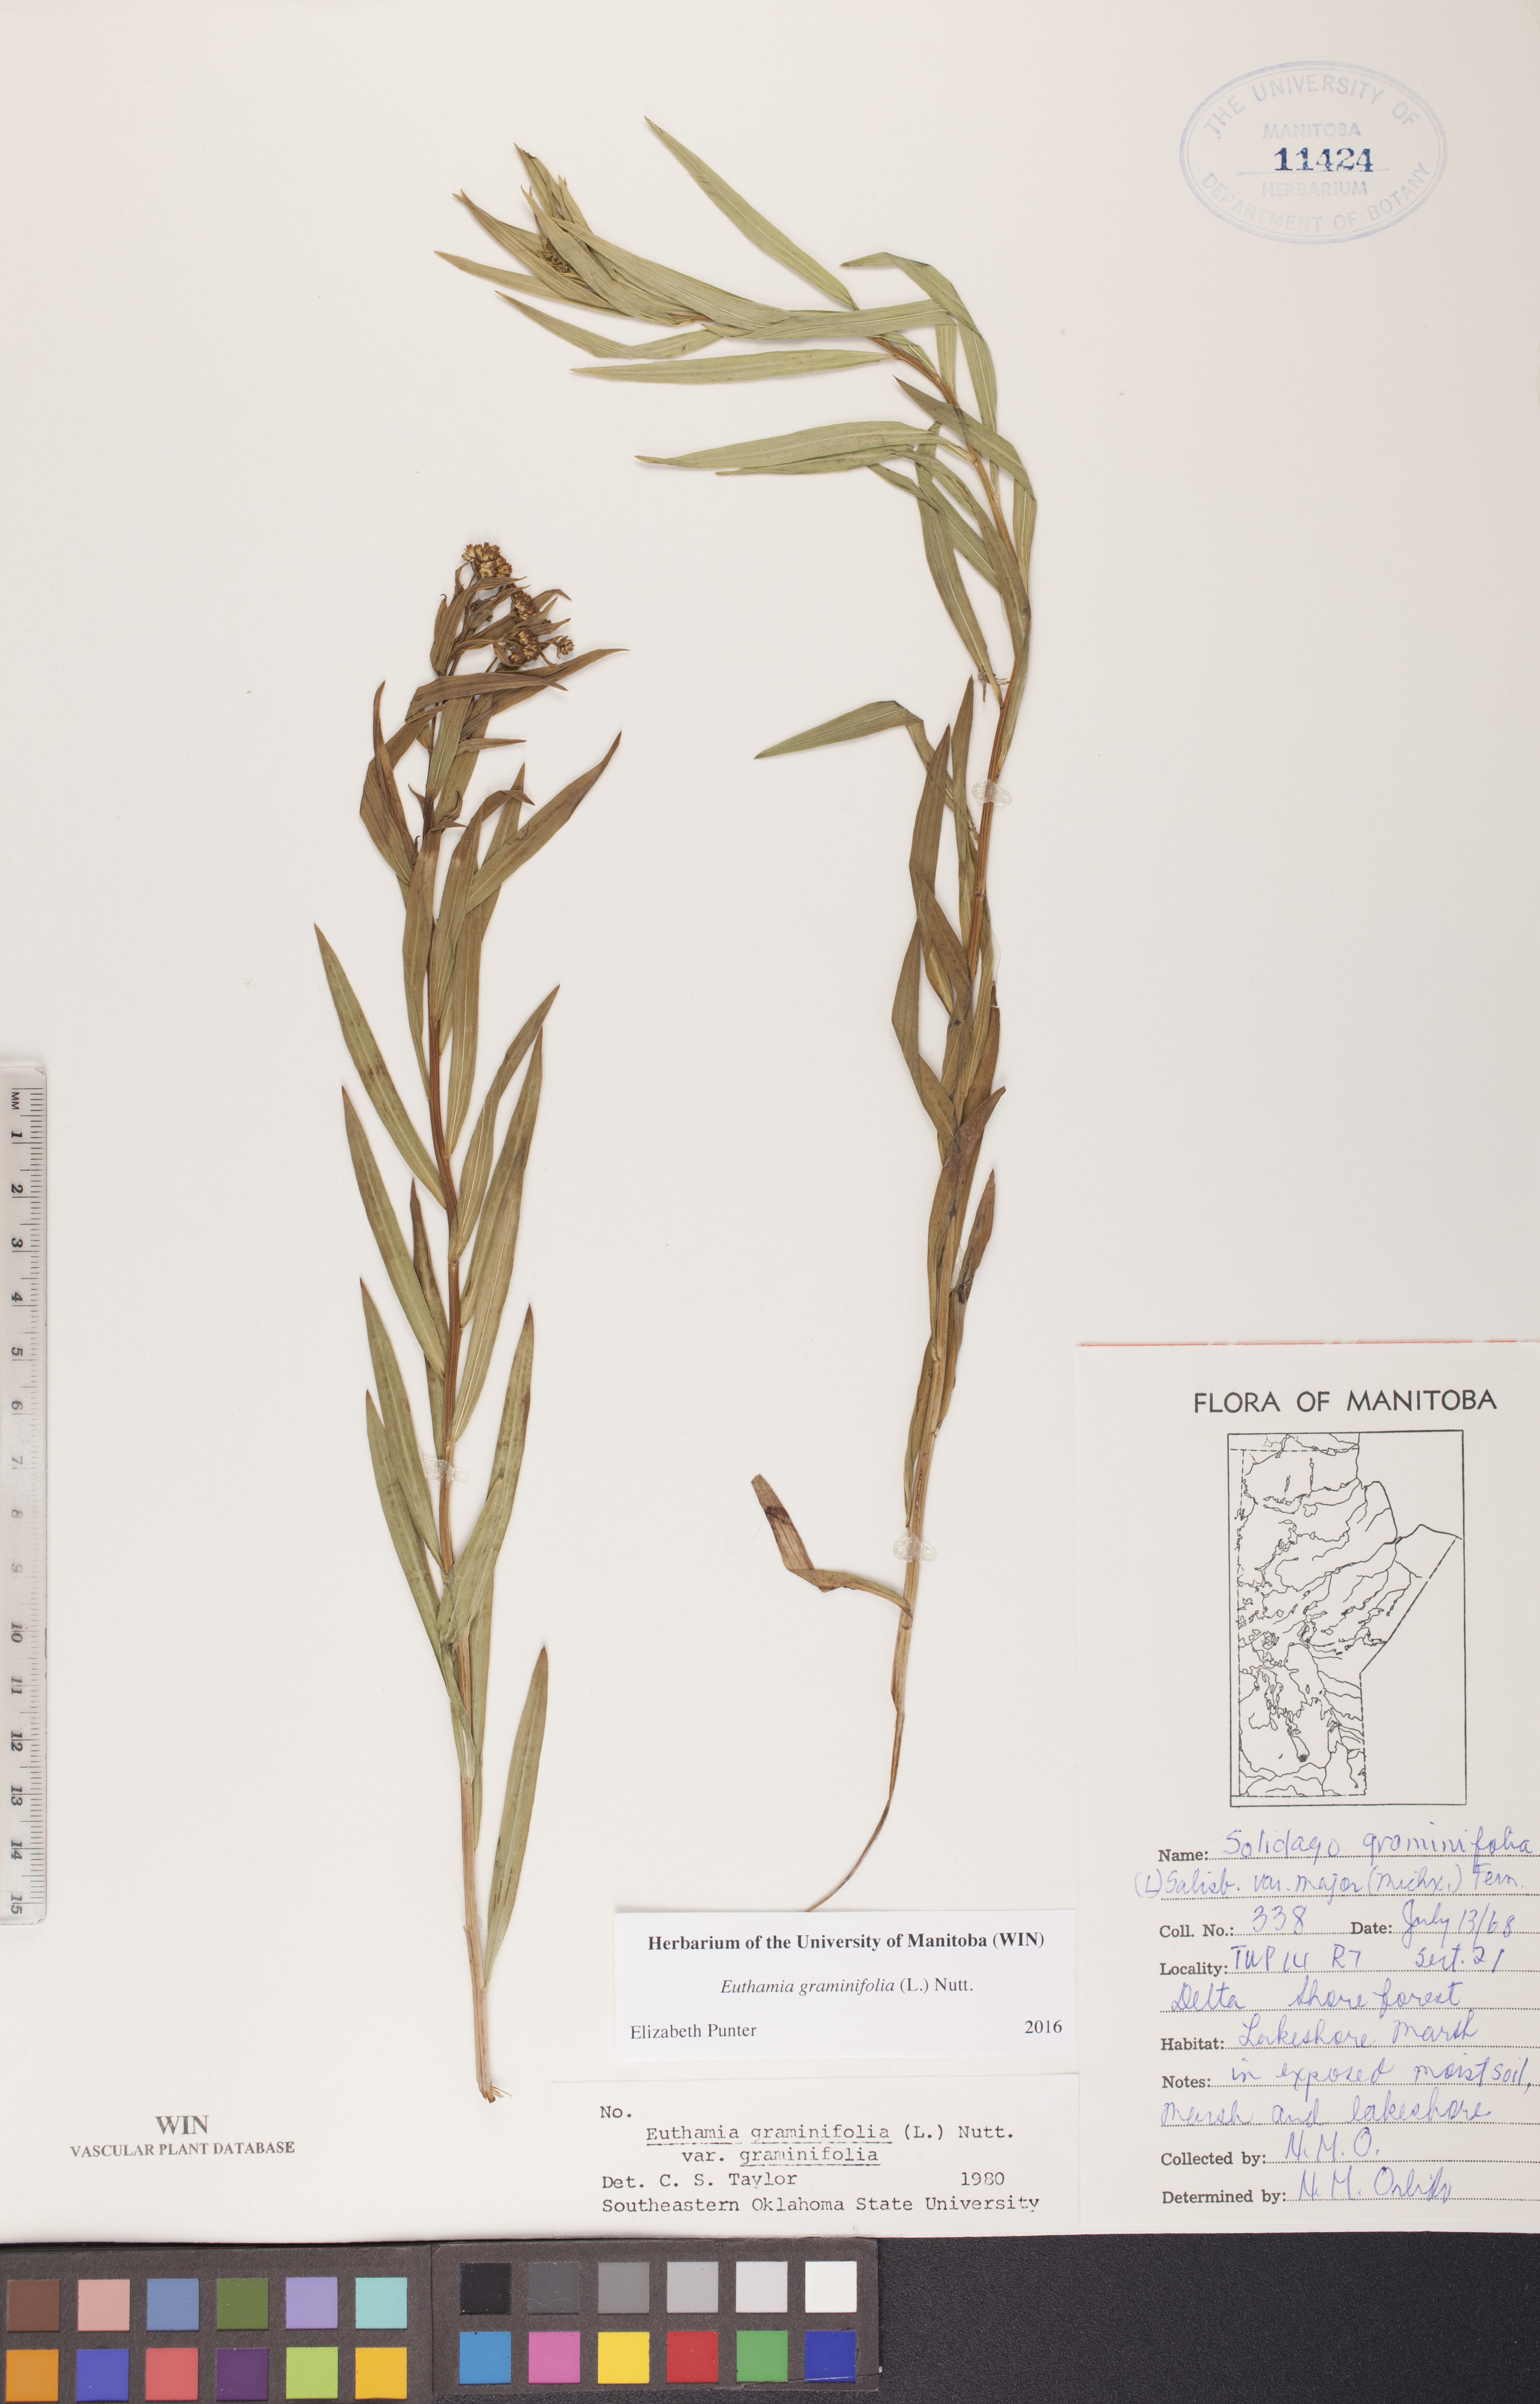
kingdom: Plantae
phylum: Tracheophyta
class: Magnoliopsida
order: Asterales
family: Asteraceae
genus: Euthamia
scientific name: Euthamia graminifolia
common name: Common goldentop
